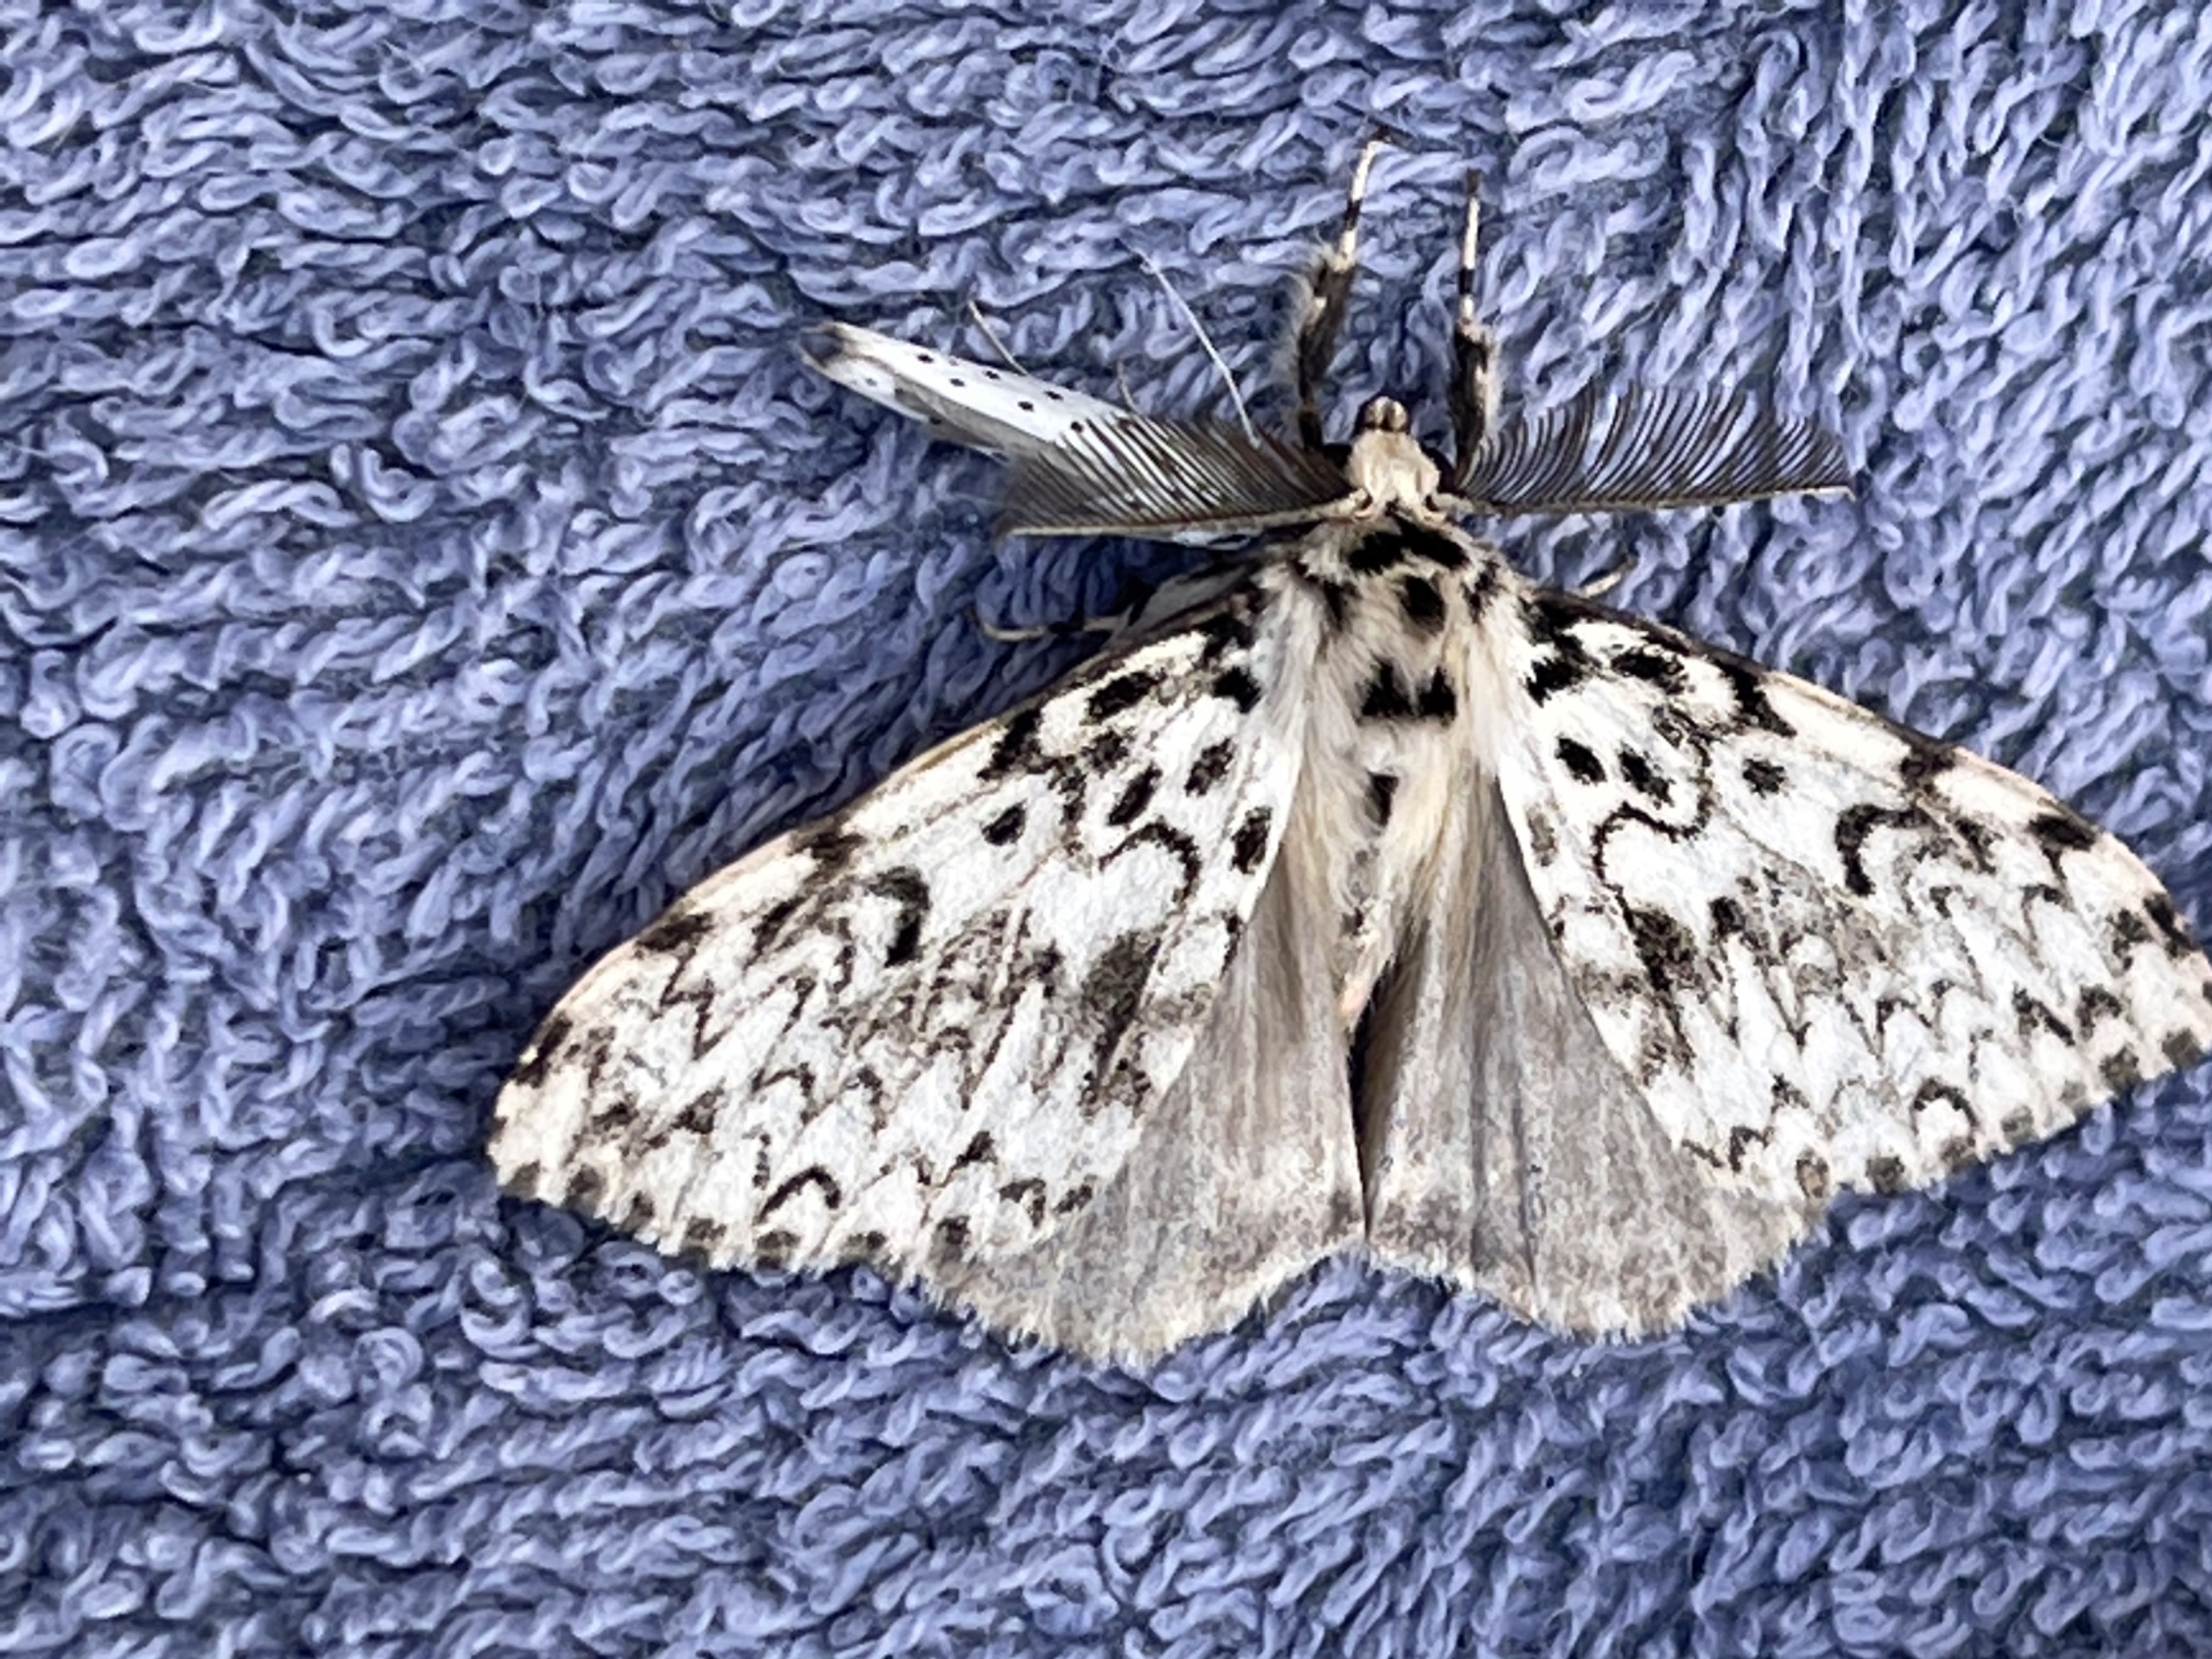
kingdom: Animalia
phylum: Arthropoda
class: Insecta
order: Lepidoptera
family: Erebidae
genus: Lymantria
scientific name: Lymantria monacha
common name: Nonne
